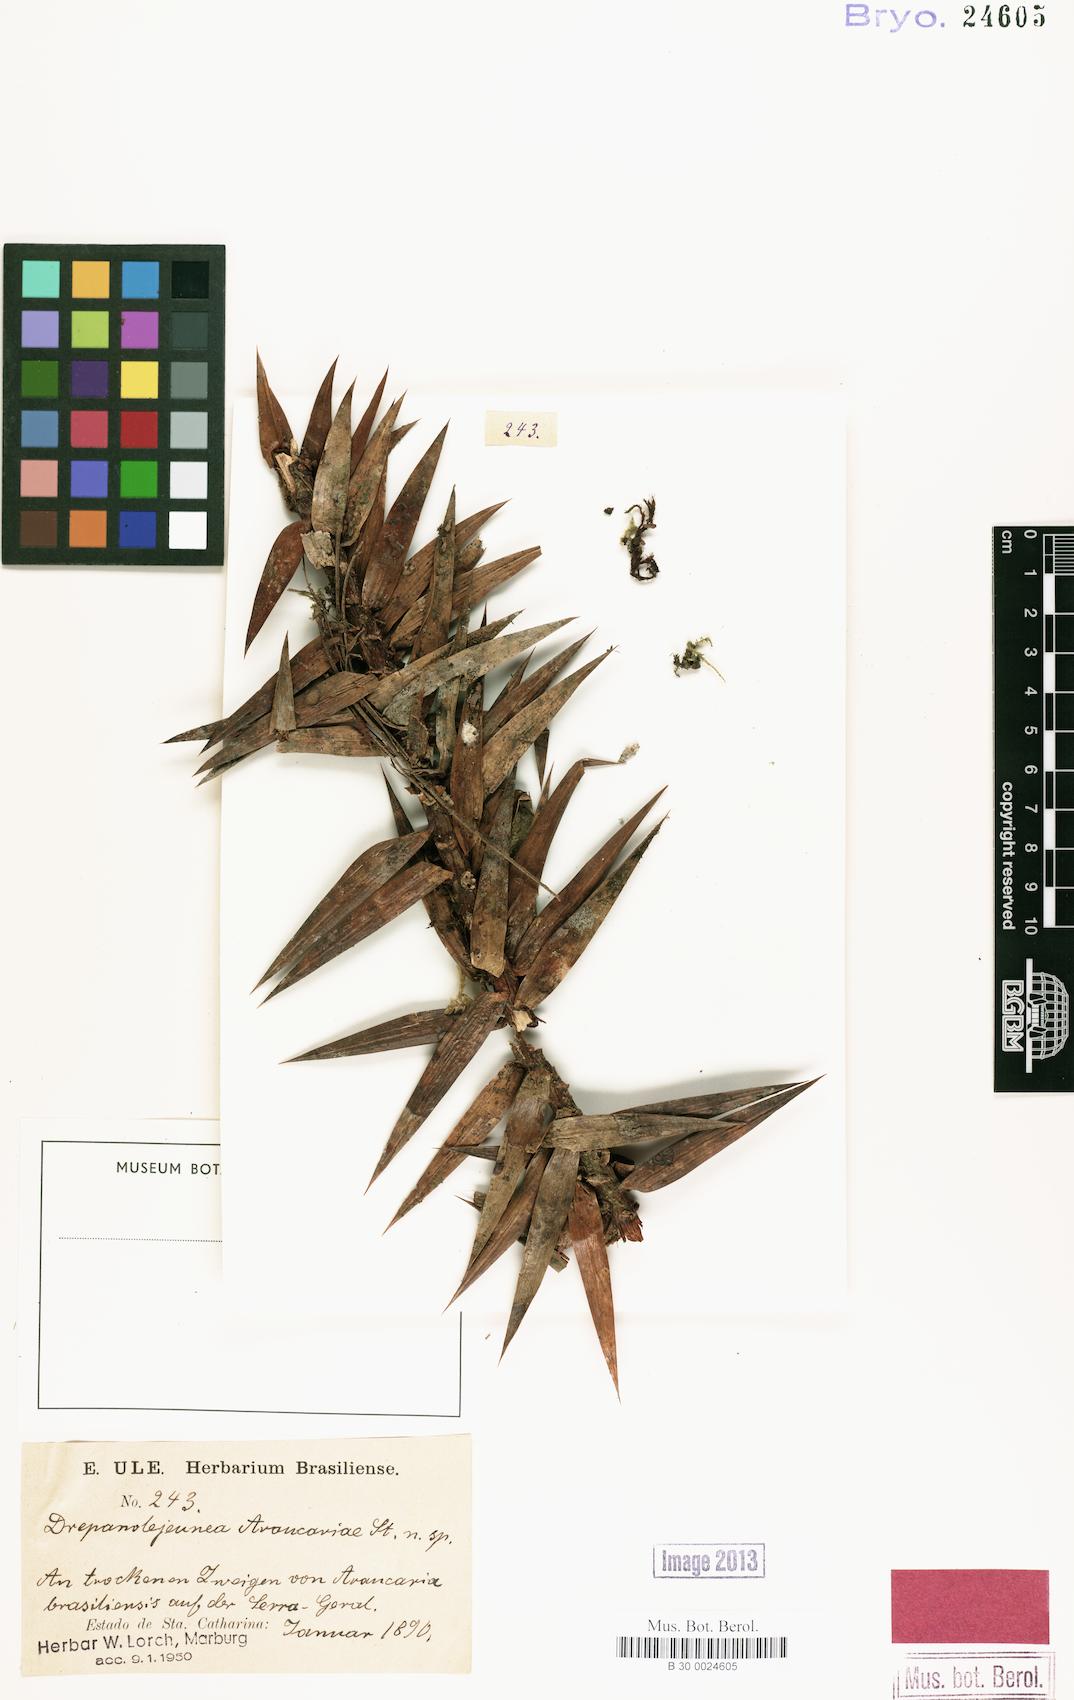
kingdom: Plantae
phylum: Marchantiophyta
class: Jungermanniopsida
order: Porellales
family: Lejeuneaceae
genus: Drepanolejeunea
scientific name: Drepanolejeunea araucariae
